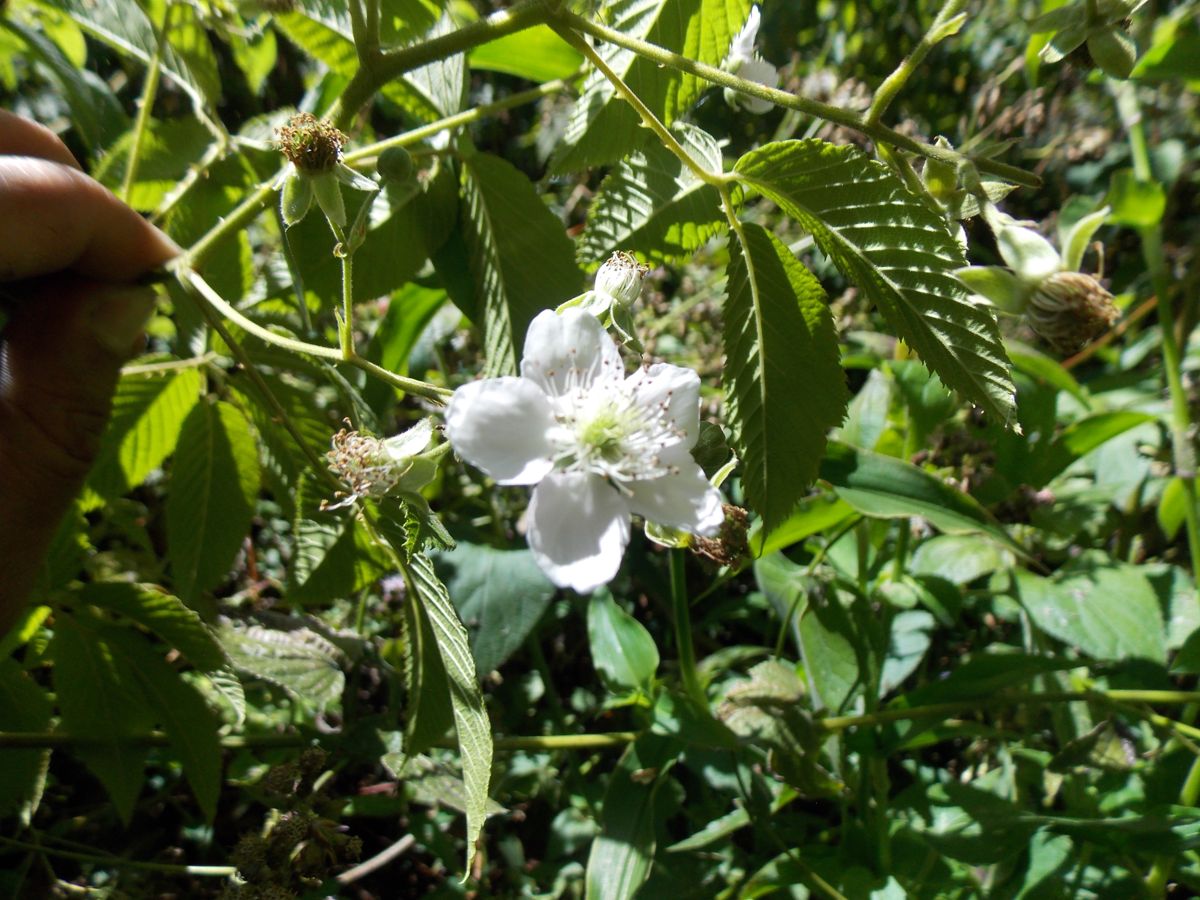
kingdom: Plantae
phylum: Tracheophyta
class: Magnoliopsida
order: Rosales
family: Rosaceae
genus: Rubus
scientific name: Rubus coriifolius
